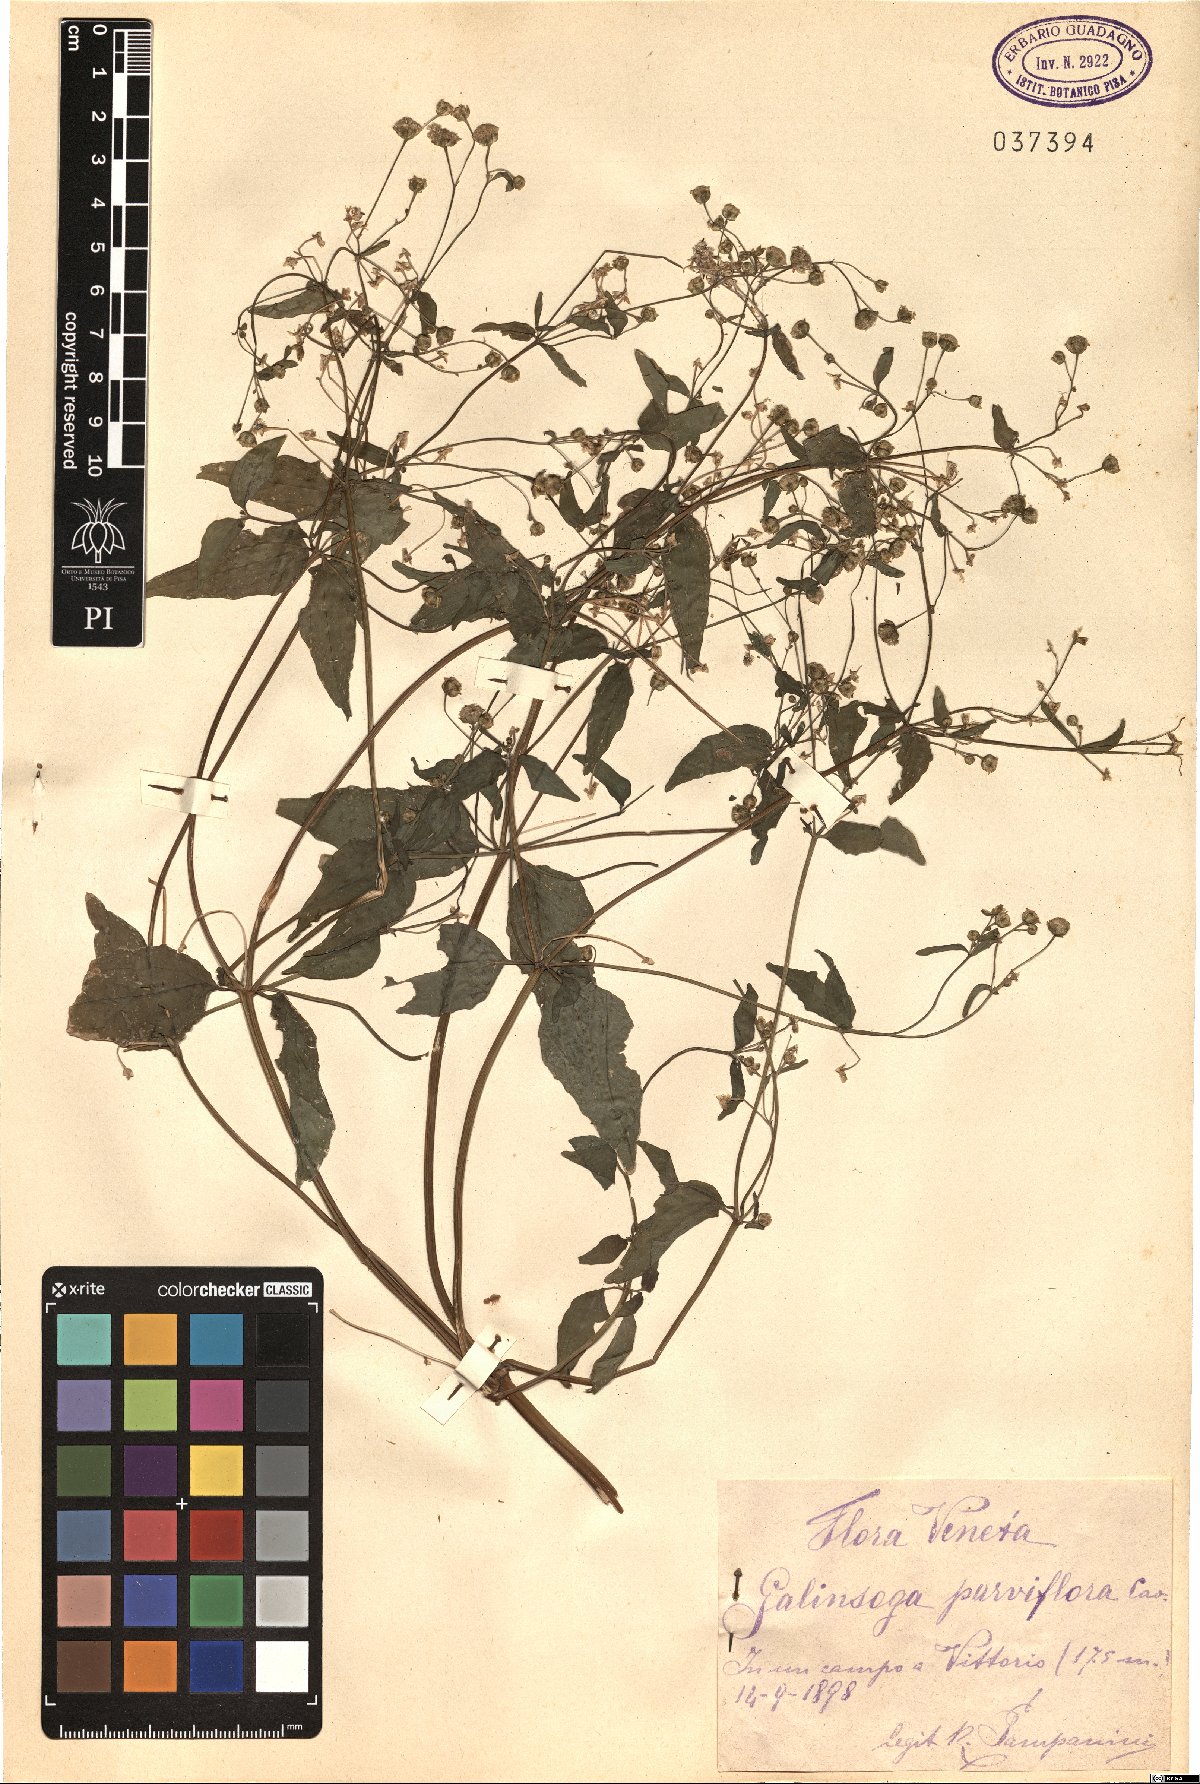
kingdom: Plantae
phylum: Tracheophyta
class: Magnoliopsida
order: Asterales
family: Asteraceae
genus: Galinsoga
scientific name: Galinsoga parviflora
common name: Gallant soldier
